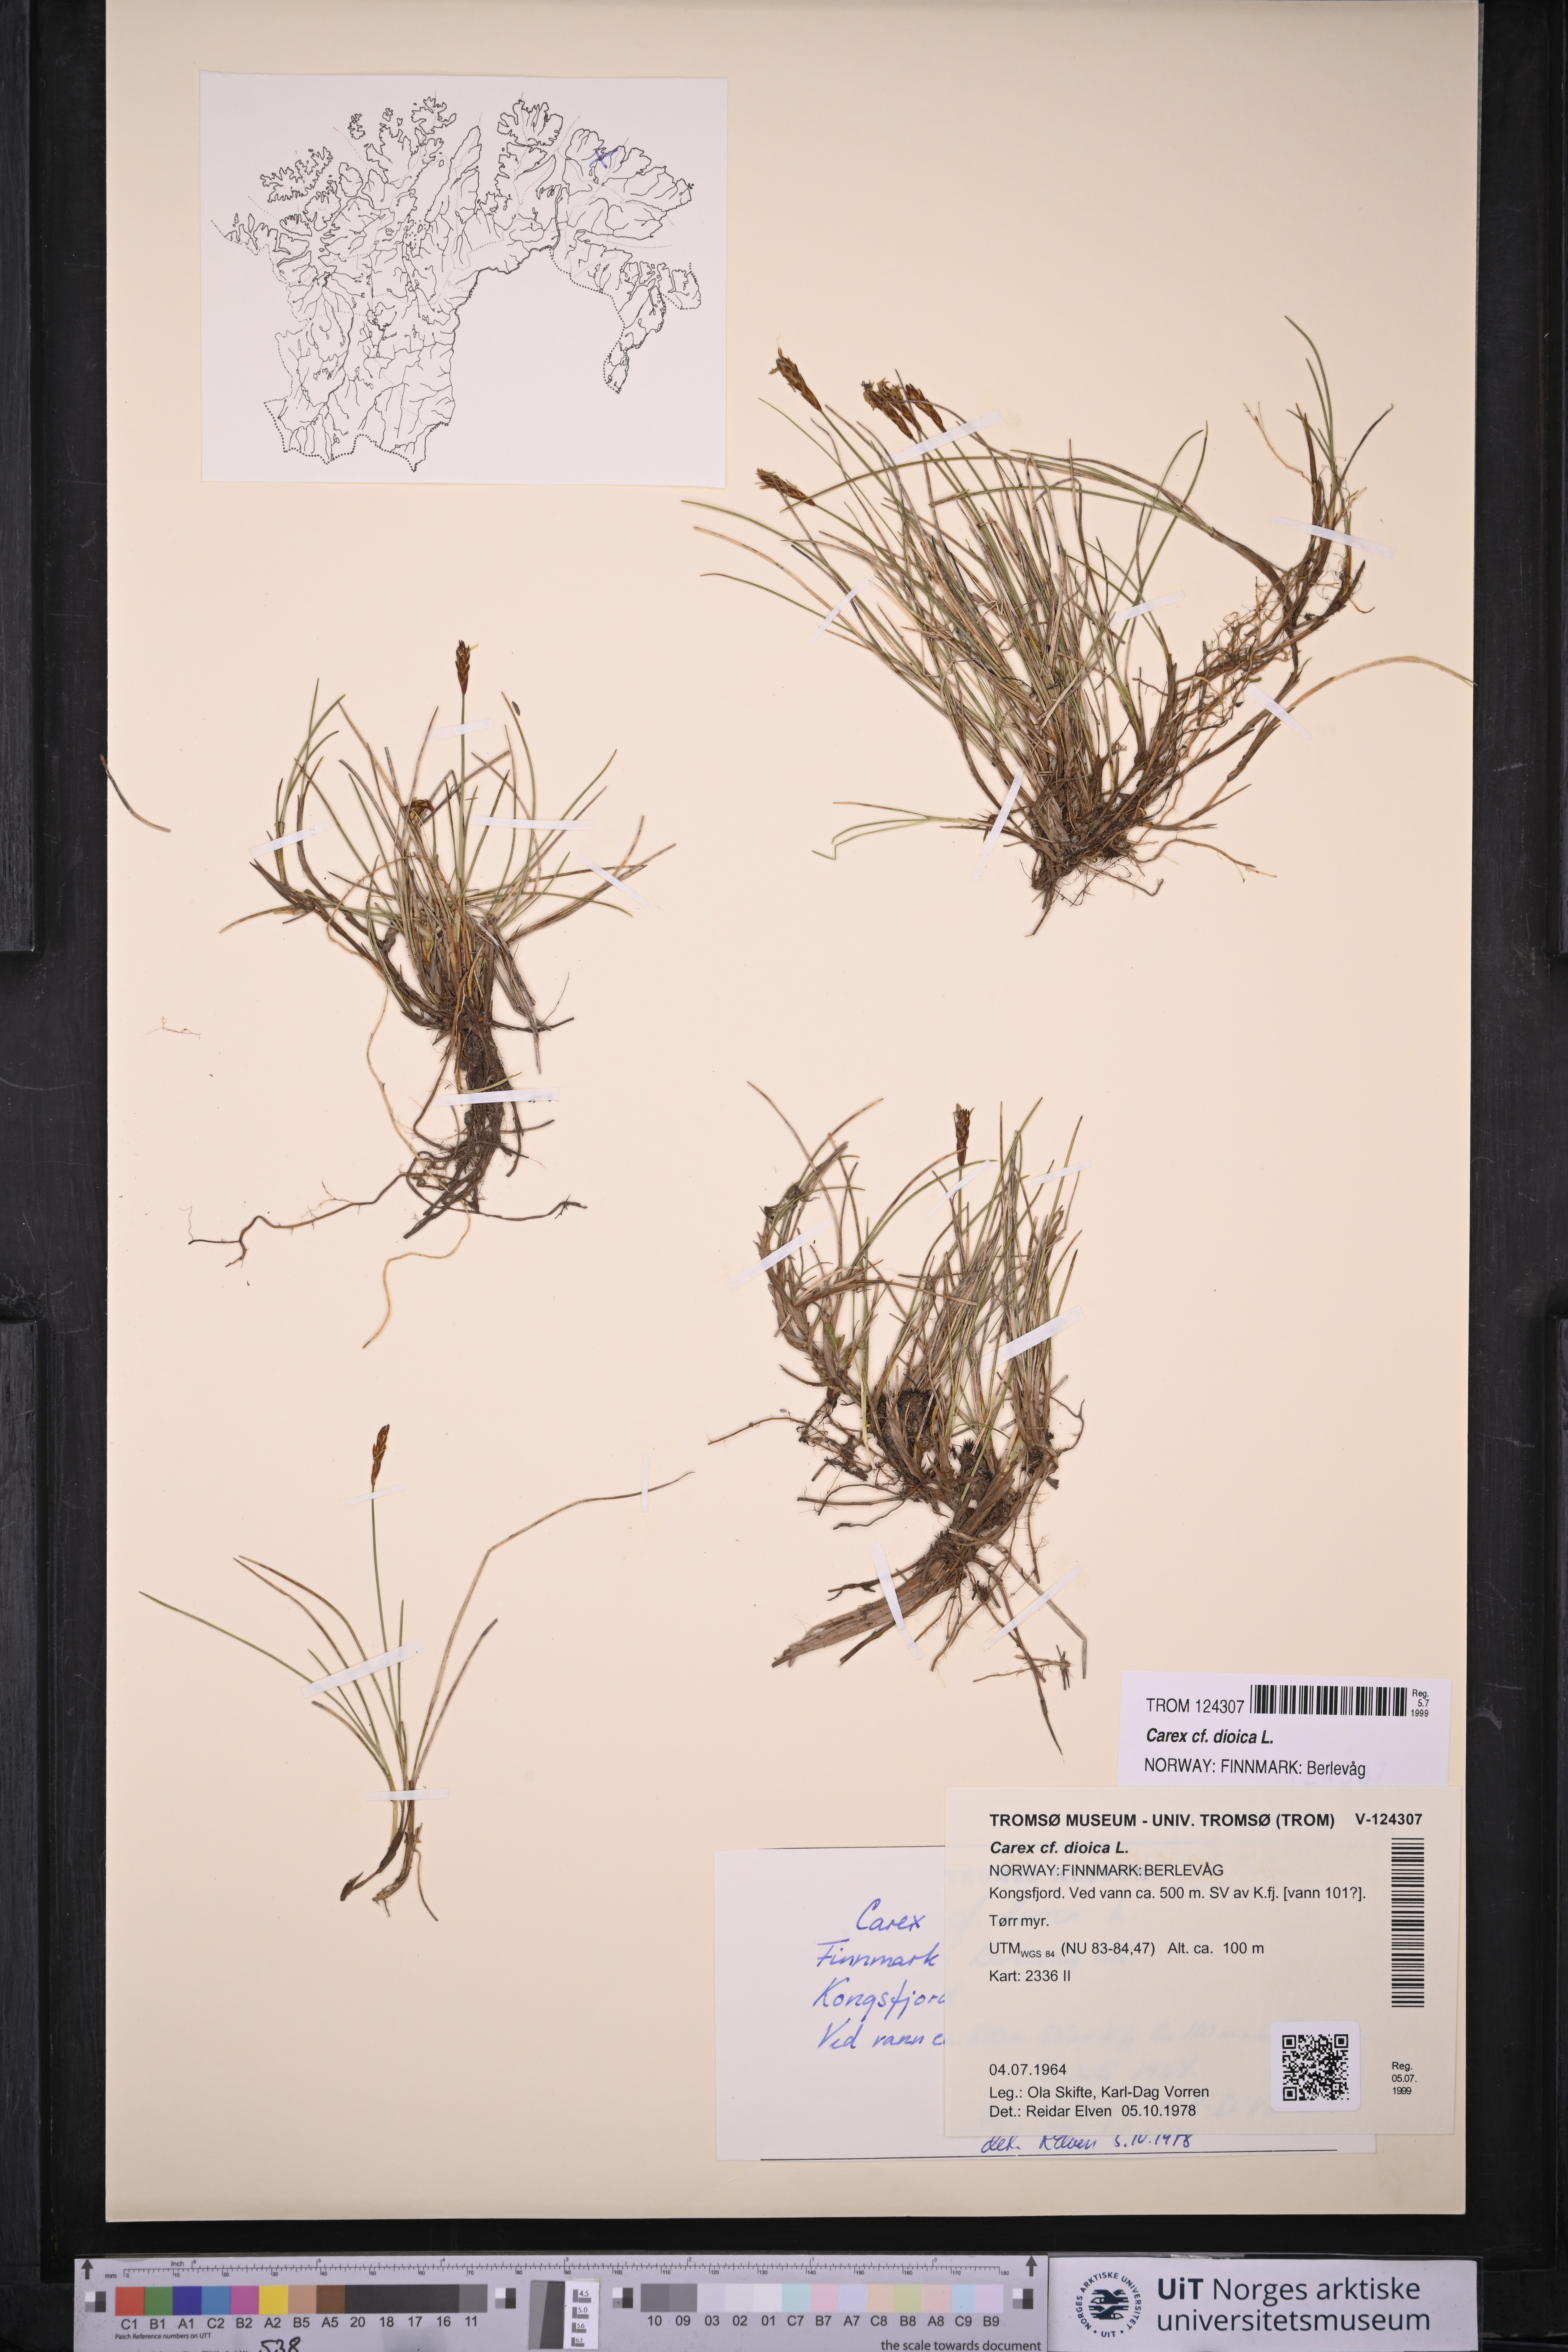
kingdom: Plantae
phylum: Tracheophyta
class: Liliopsida
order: Poales
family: Cyperaceae
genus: Carex
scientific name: Carex dioica
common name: Dioecious sedge
